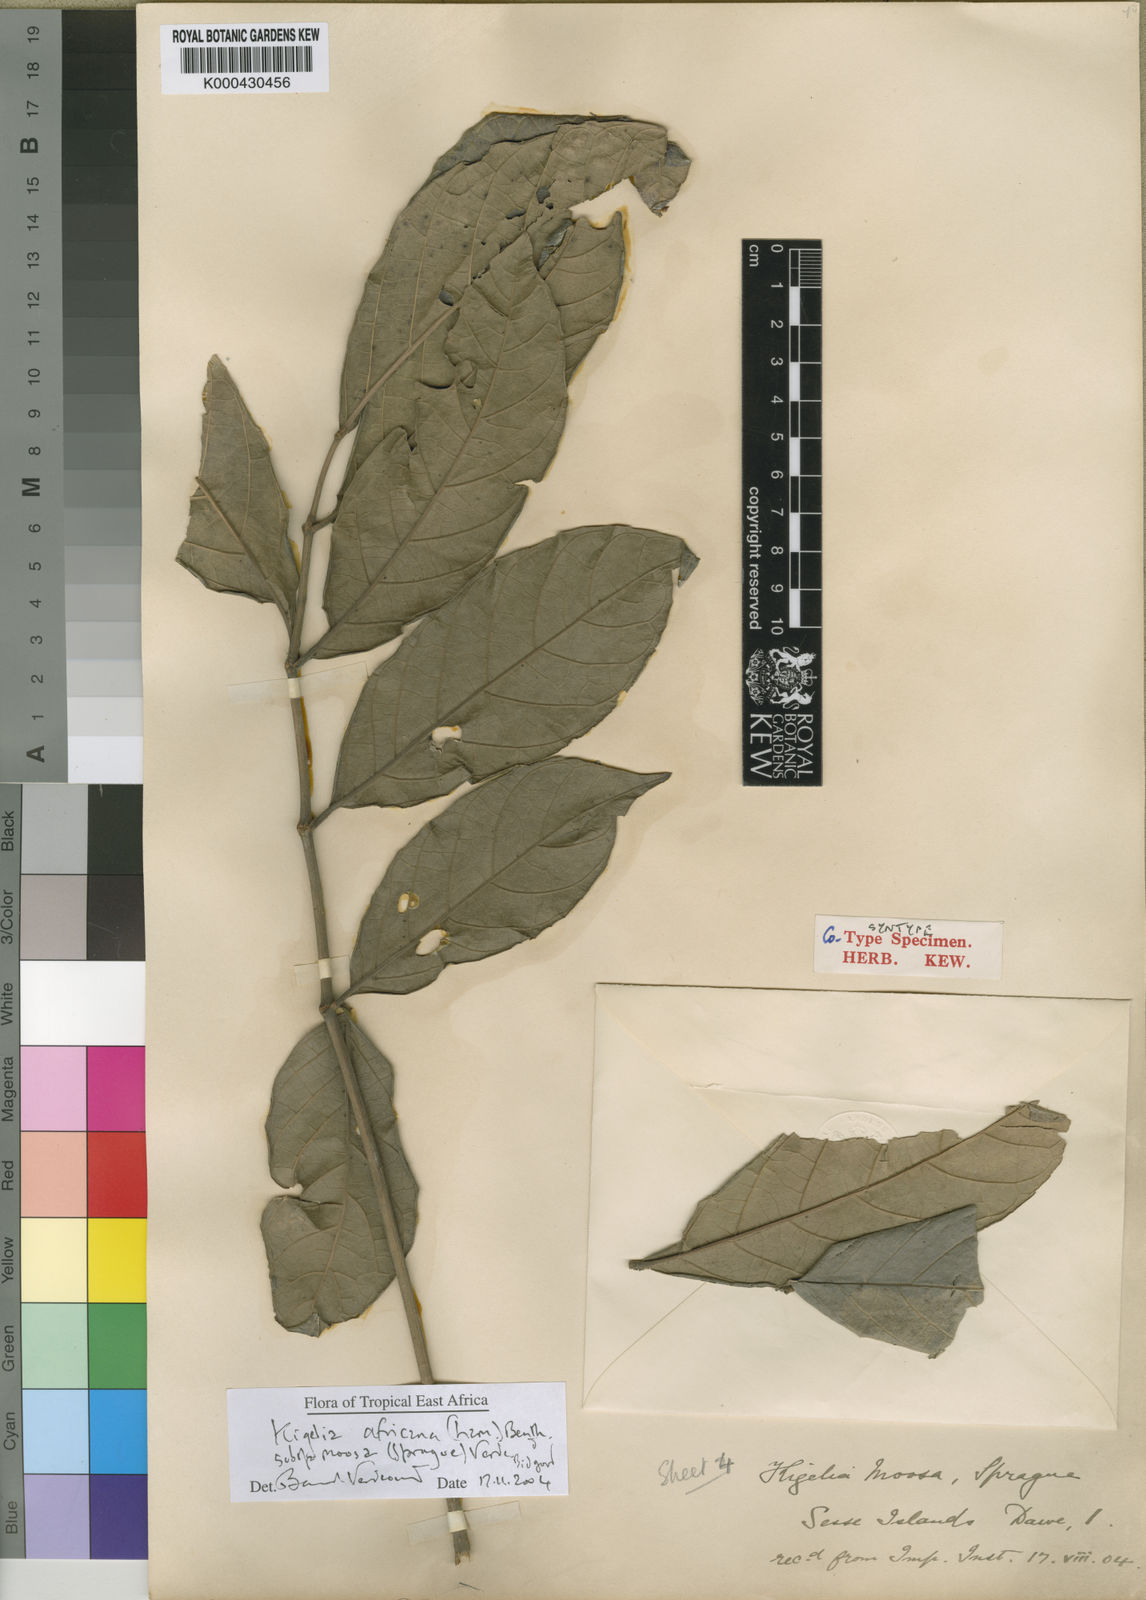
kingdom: Plantae
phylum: Tracheophyta
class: Magnoliopsida
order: Lamiales
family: Bignoniaceae
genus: Kigelia
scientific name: Kigelia africana
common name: Sausage tree
